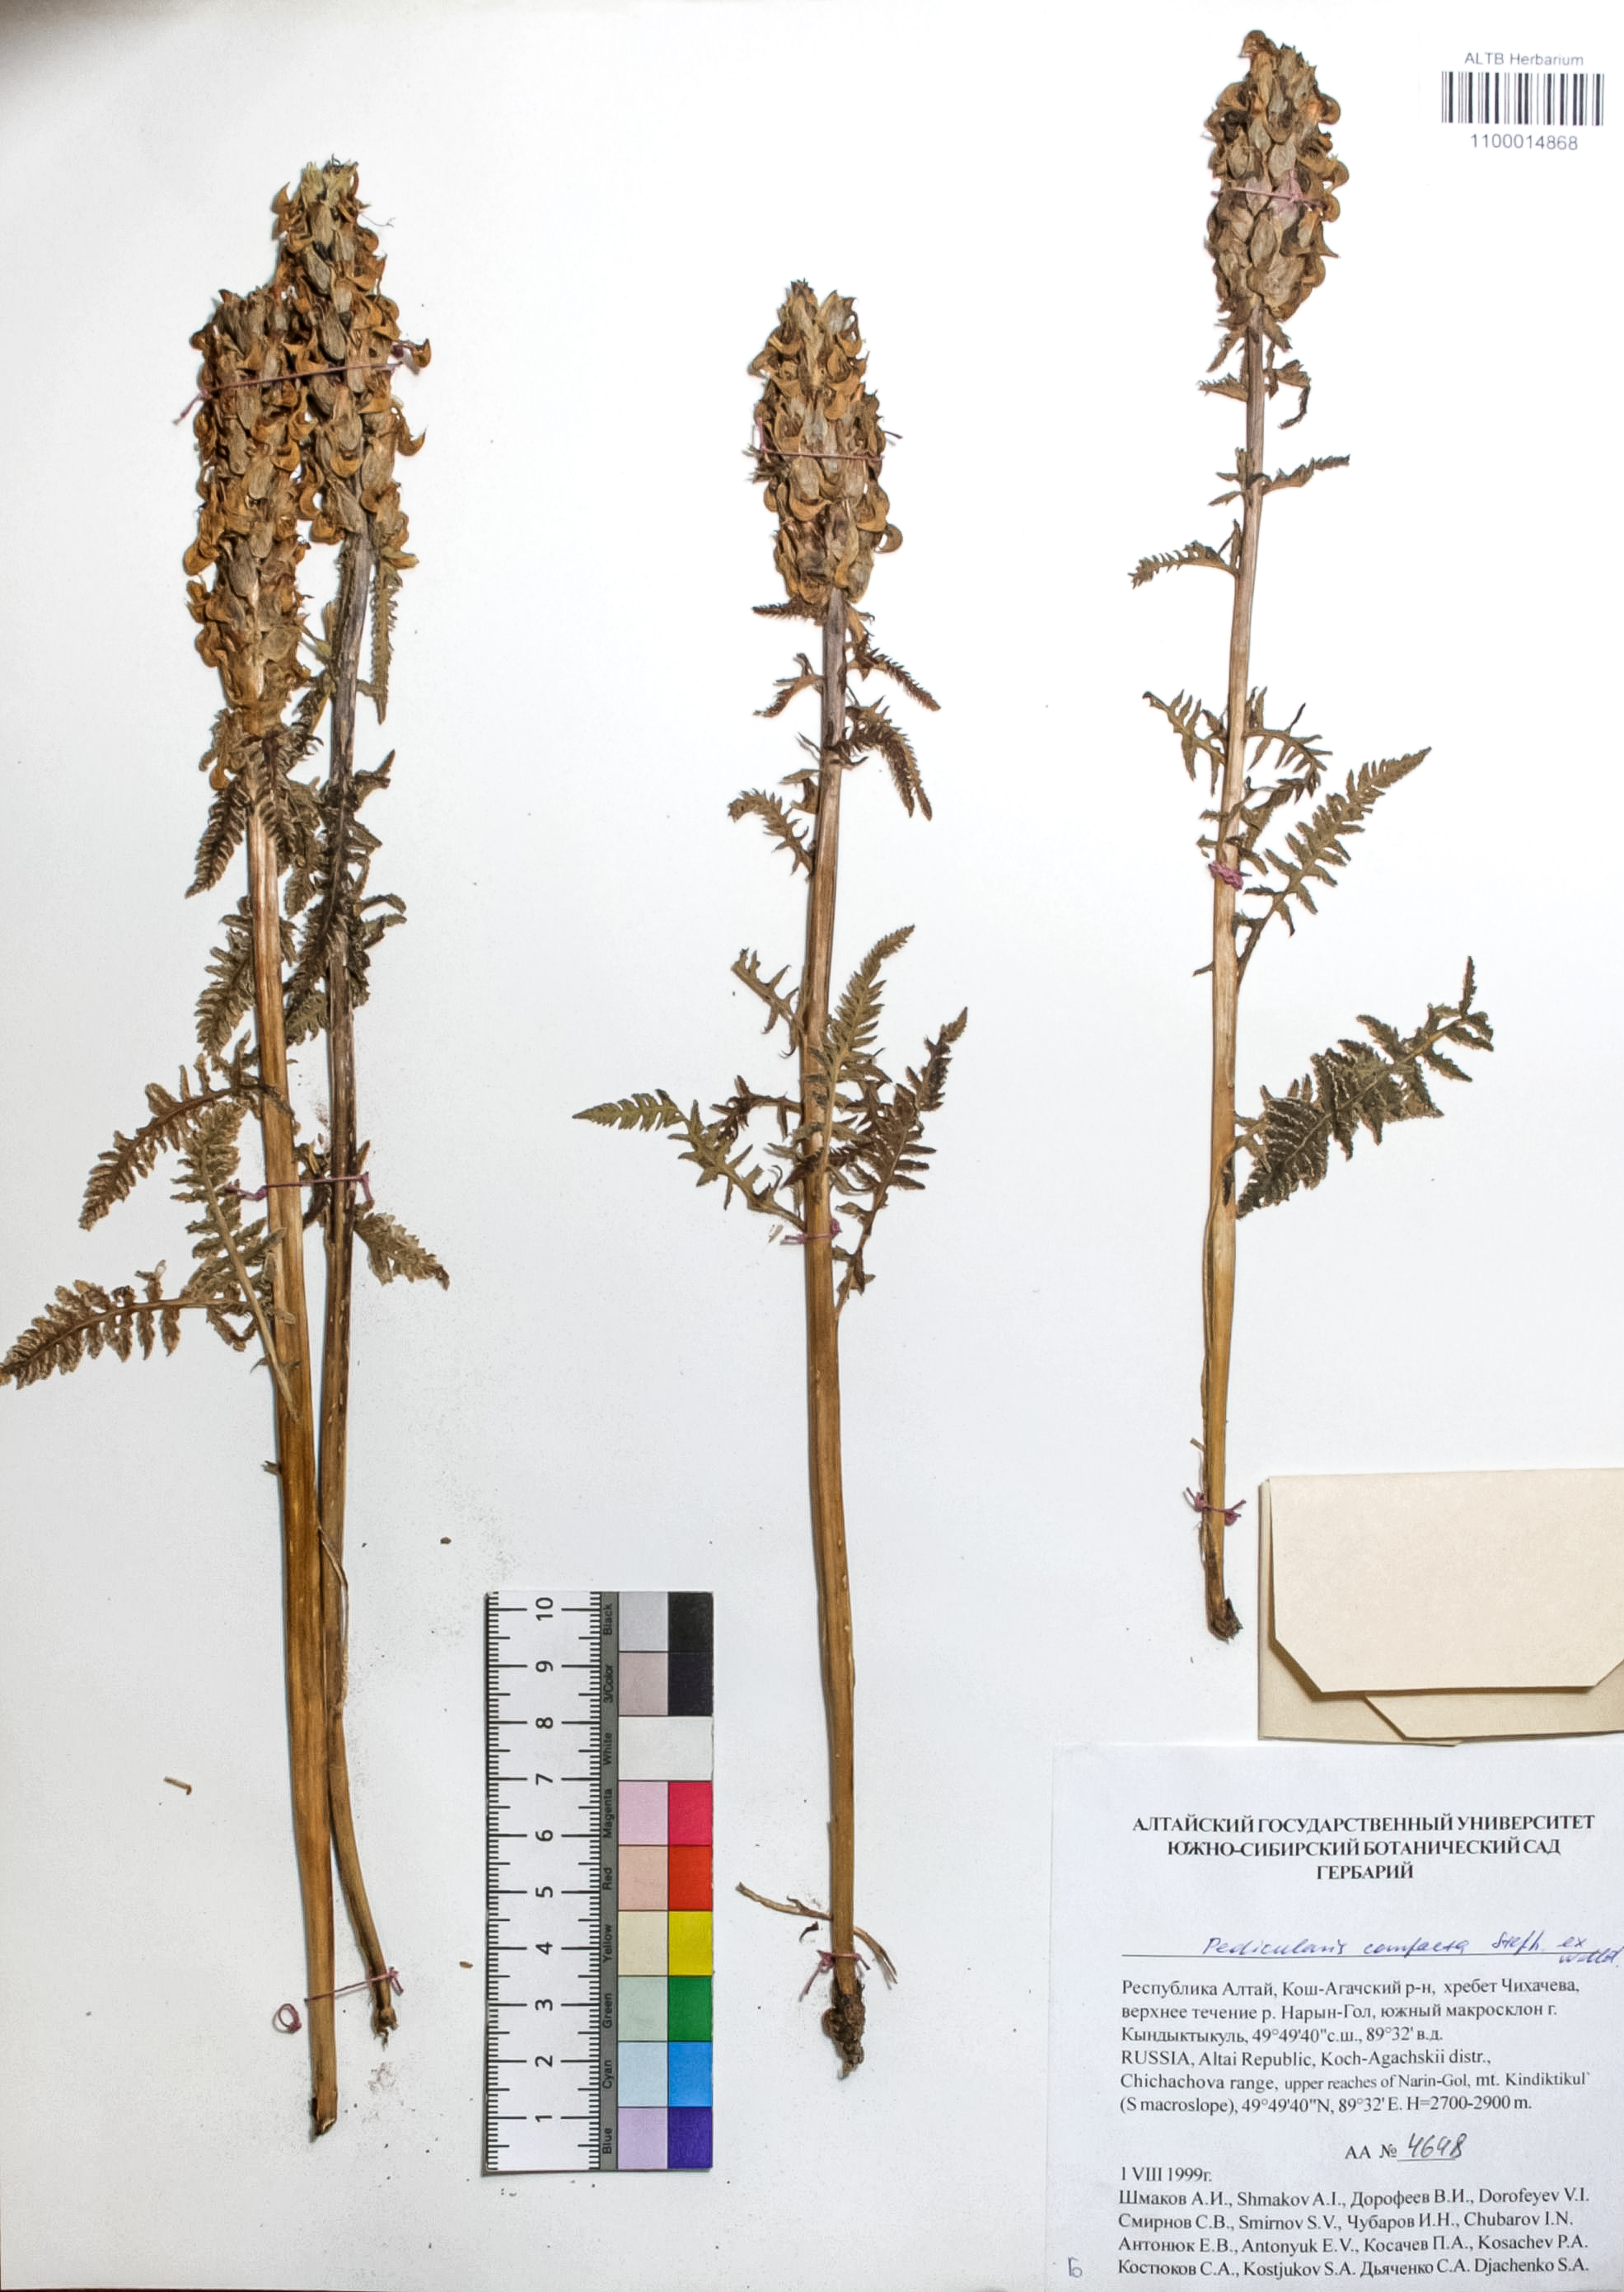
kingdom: Plantae
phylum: Tracheophyta
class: Magnoliopsida
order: Lamiales
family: Orobanchaceae
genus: Pedicularis
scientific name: Pedicularis compacta
